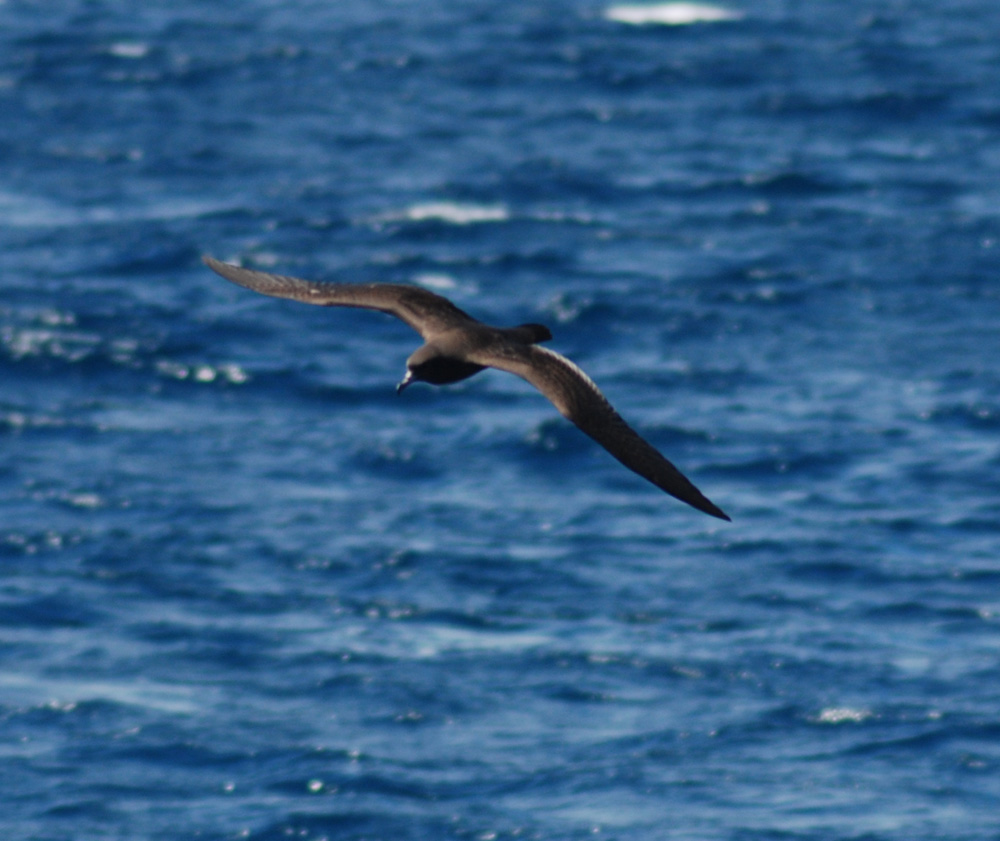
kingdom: Animalia
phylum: Chordata
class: Aves
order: Procellariiformes
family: Procellariidae
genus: Puffinus
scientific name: Puffinus carneipes
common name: Flesh-footed shearwater
